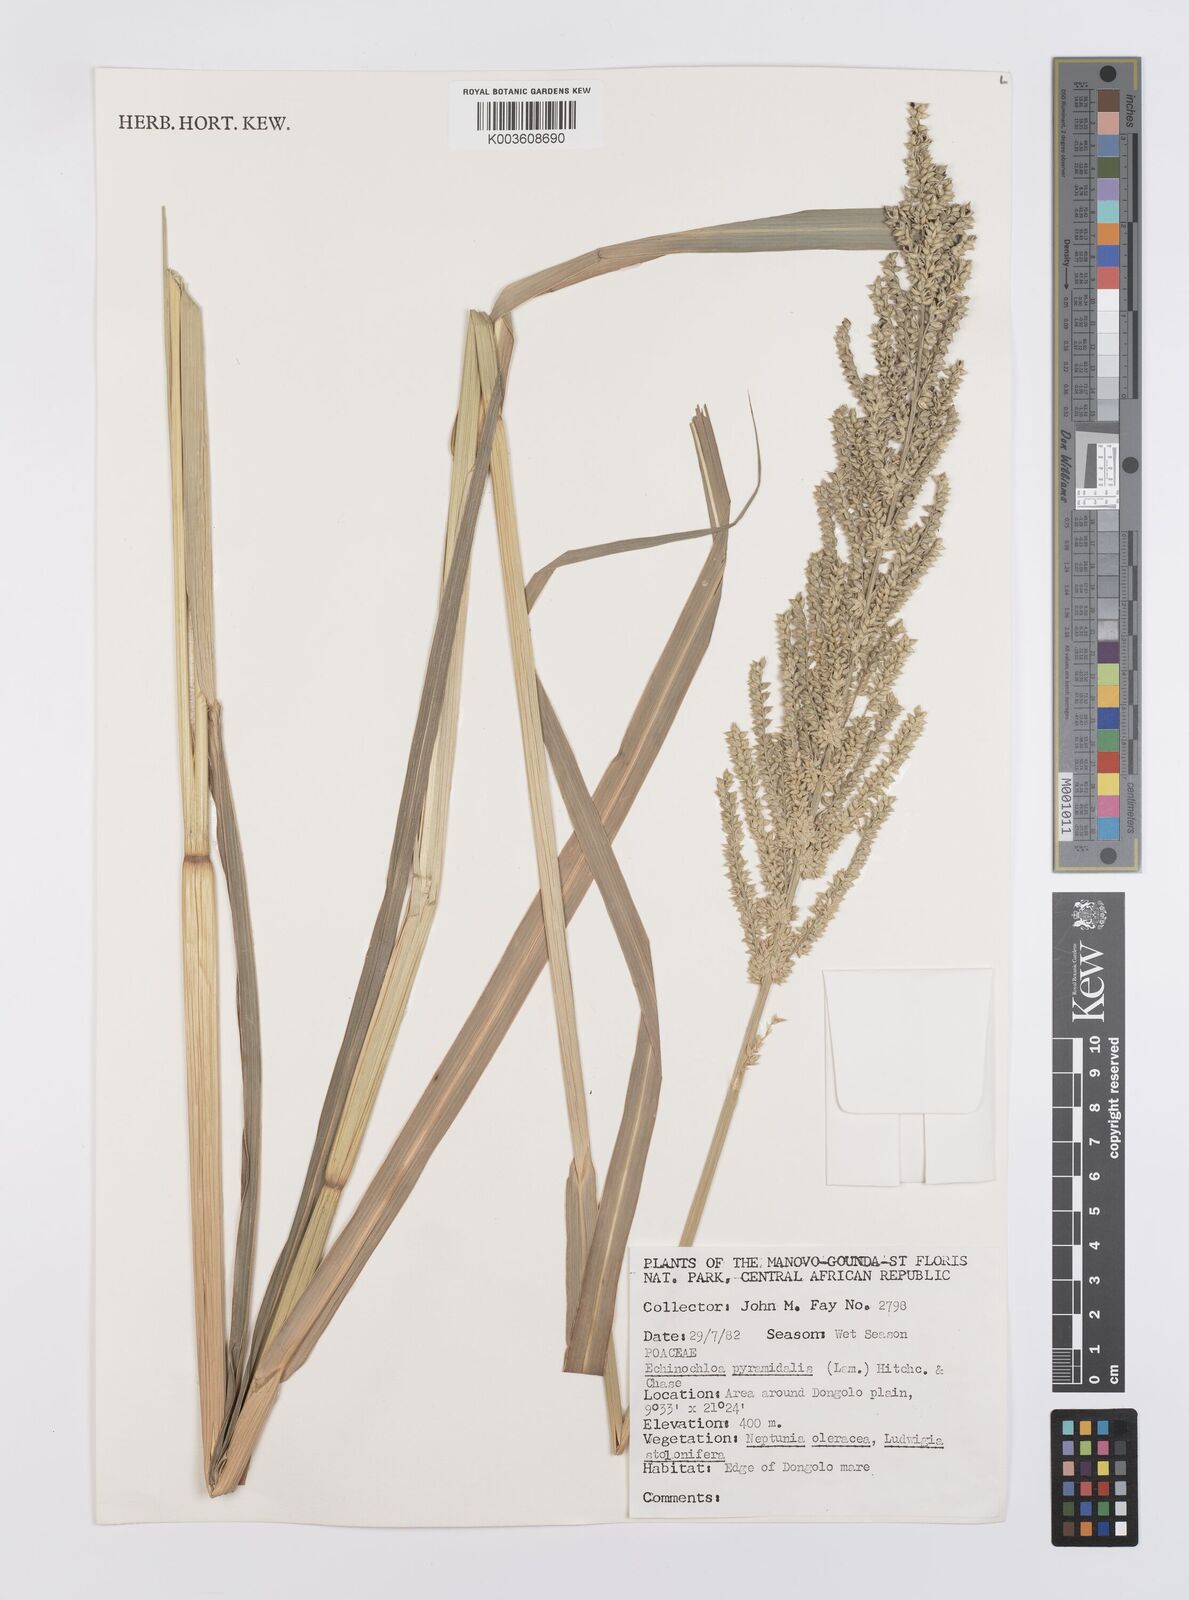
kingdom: Plantae
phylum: Tracheophyta
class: Liliopsida
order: Poales
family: Poaceae
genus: Echinochloa
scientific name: Echinochloa pyramidalis
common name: Antelope grass
